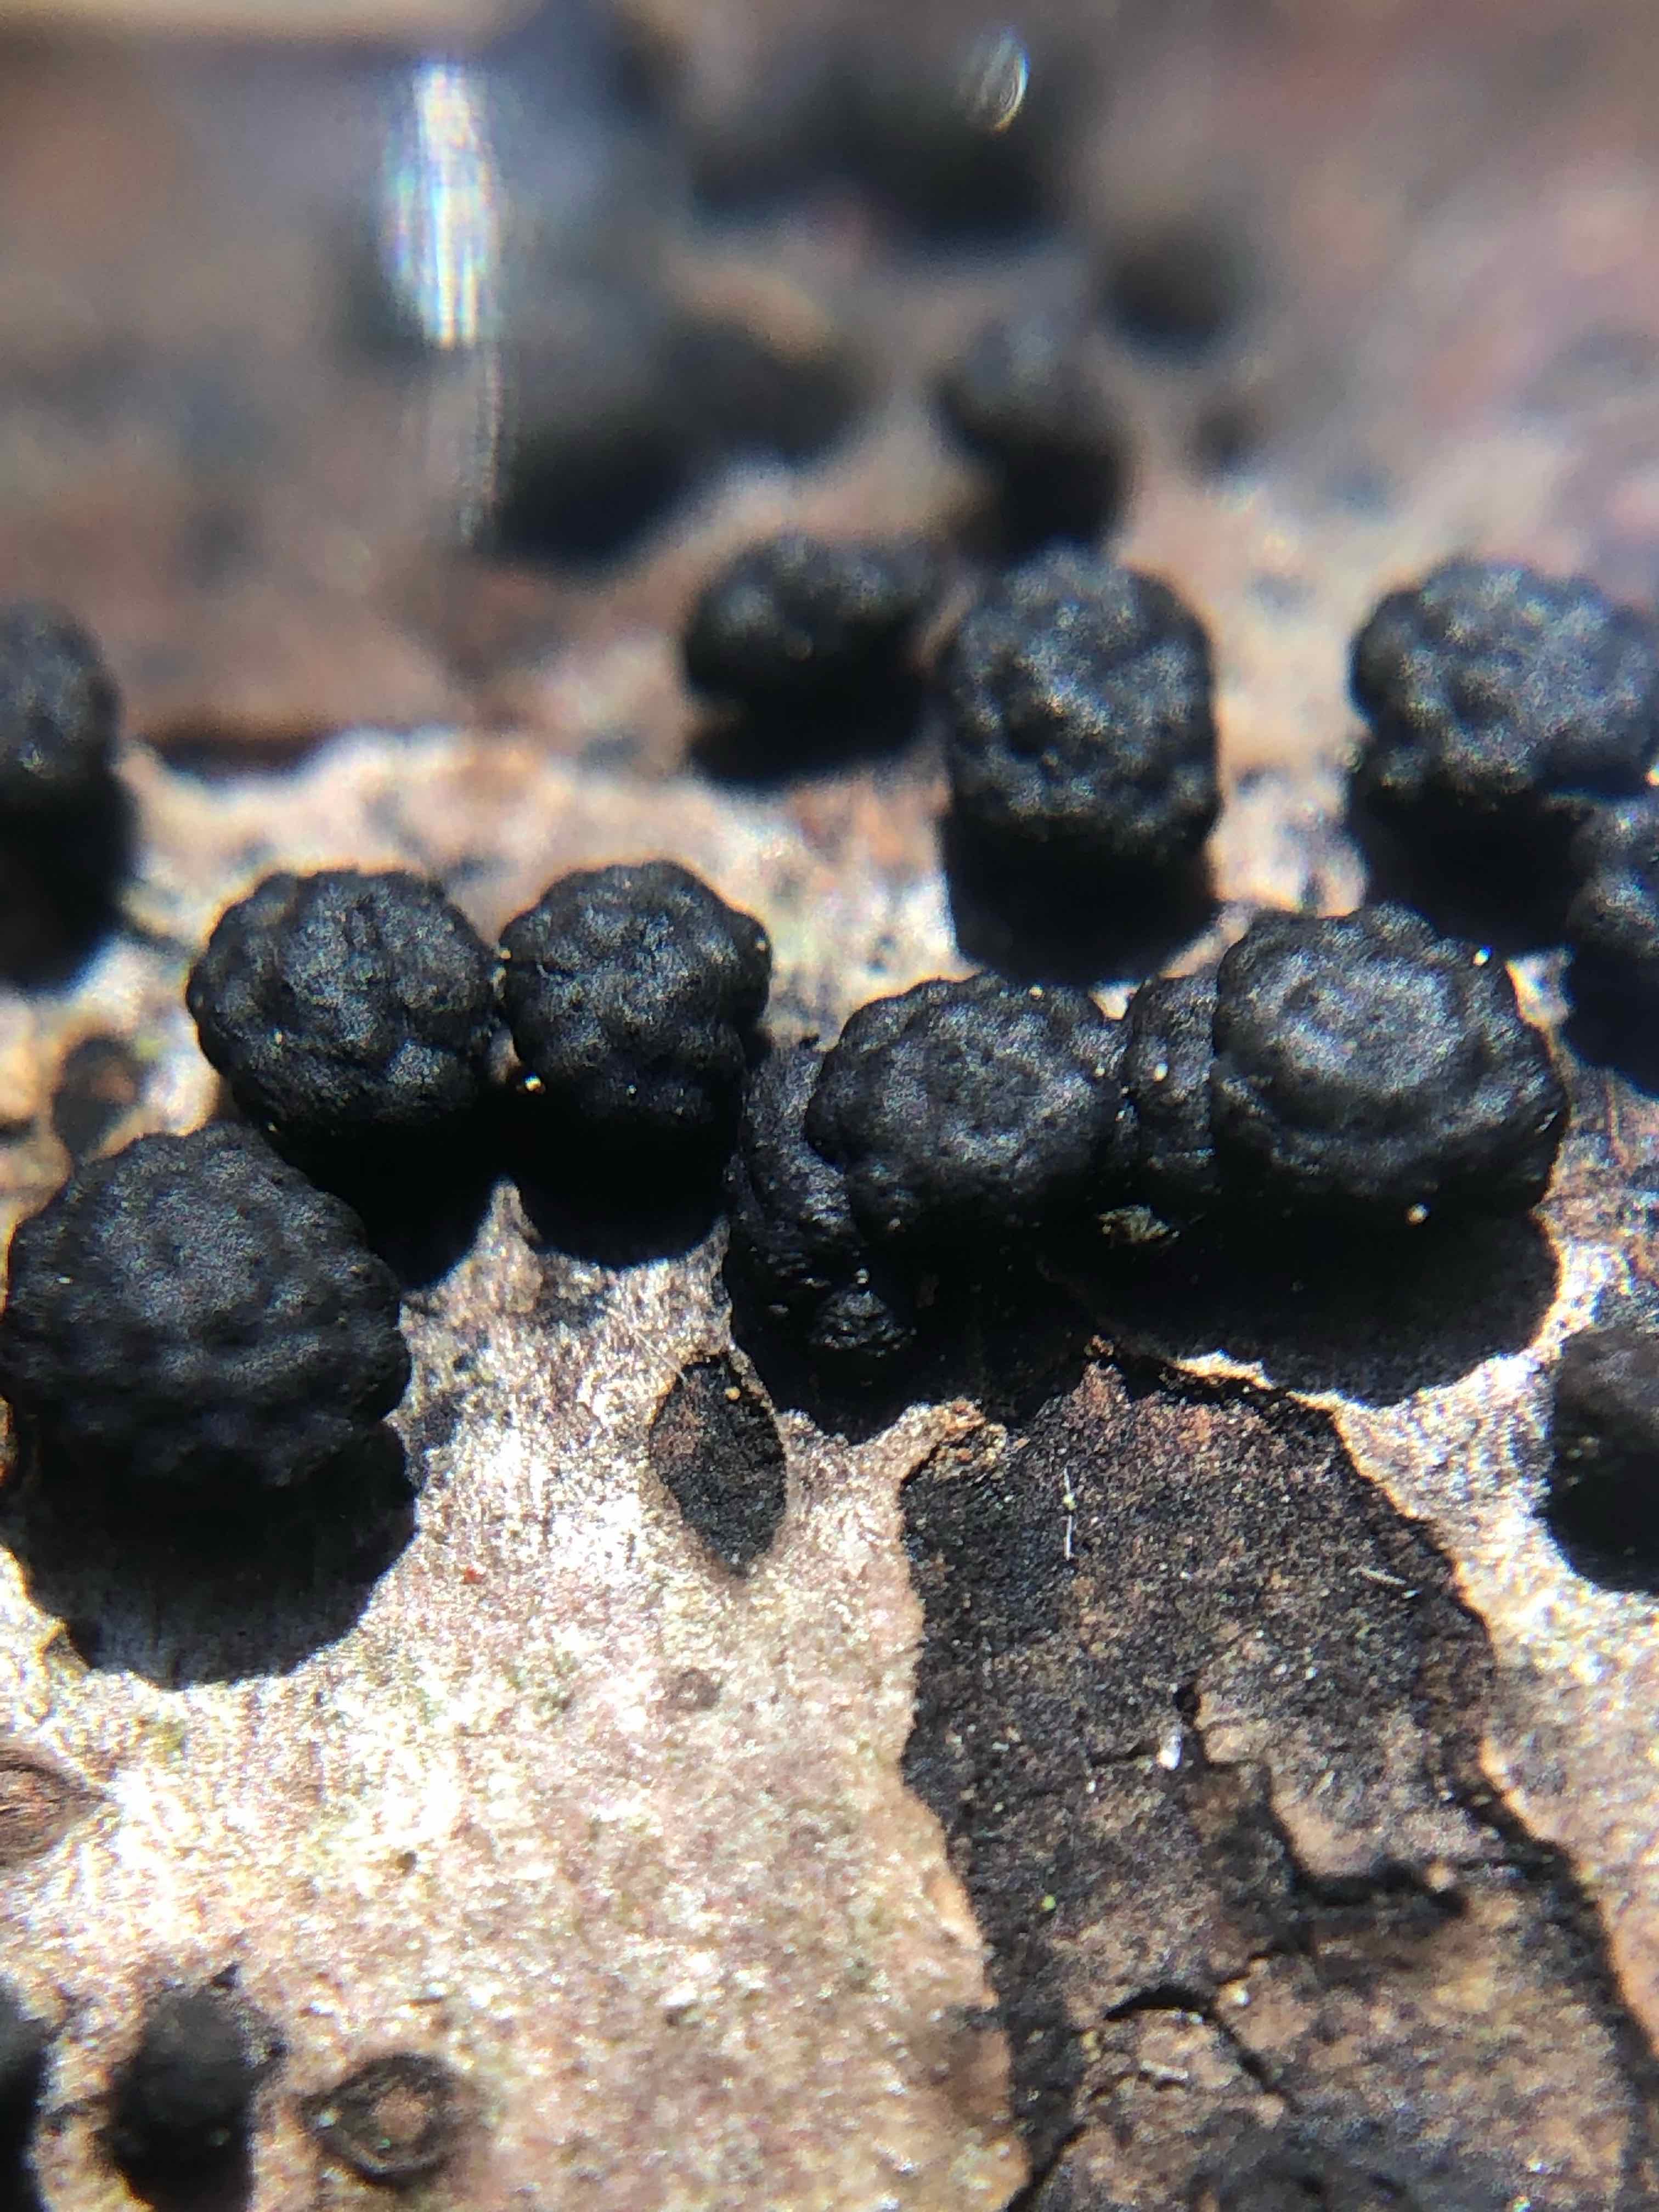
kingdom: Fungi
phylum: Ascomycota
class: Sordariomycetes
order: Xylariales
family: Hypoxylaceae
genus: Jackrogersella
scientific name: Jackrogersella cohaerens
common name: sammenflydende kulbær
